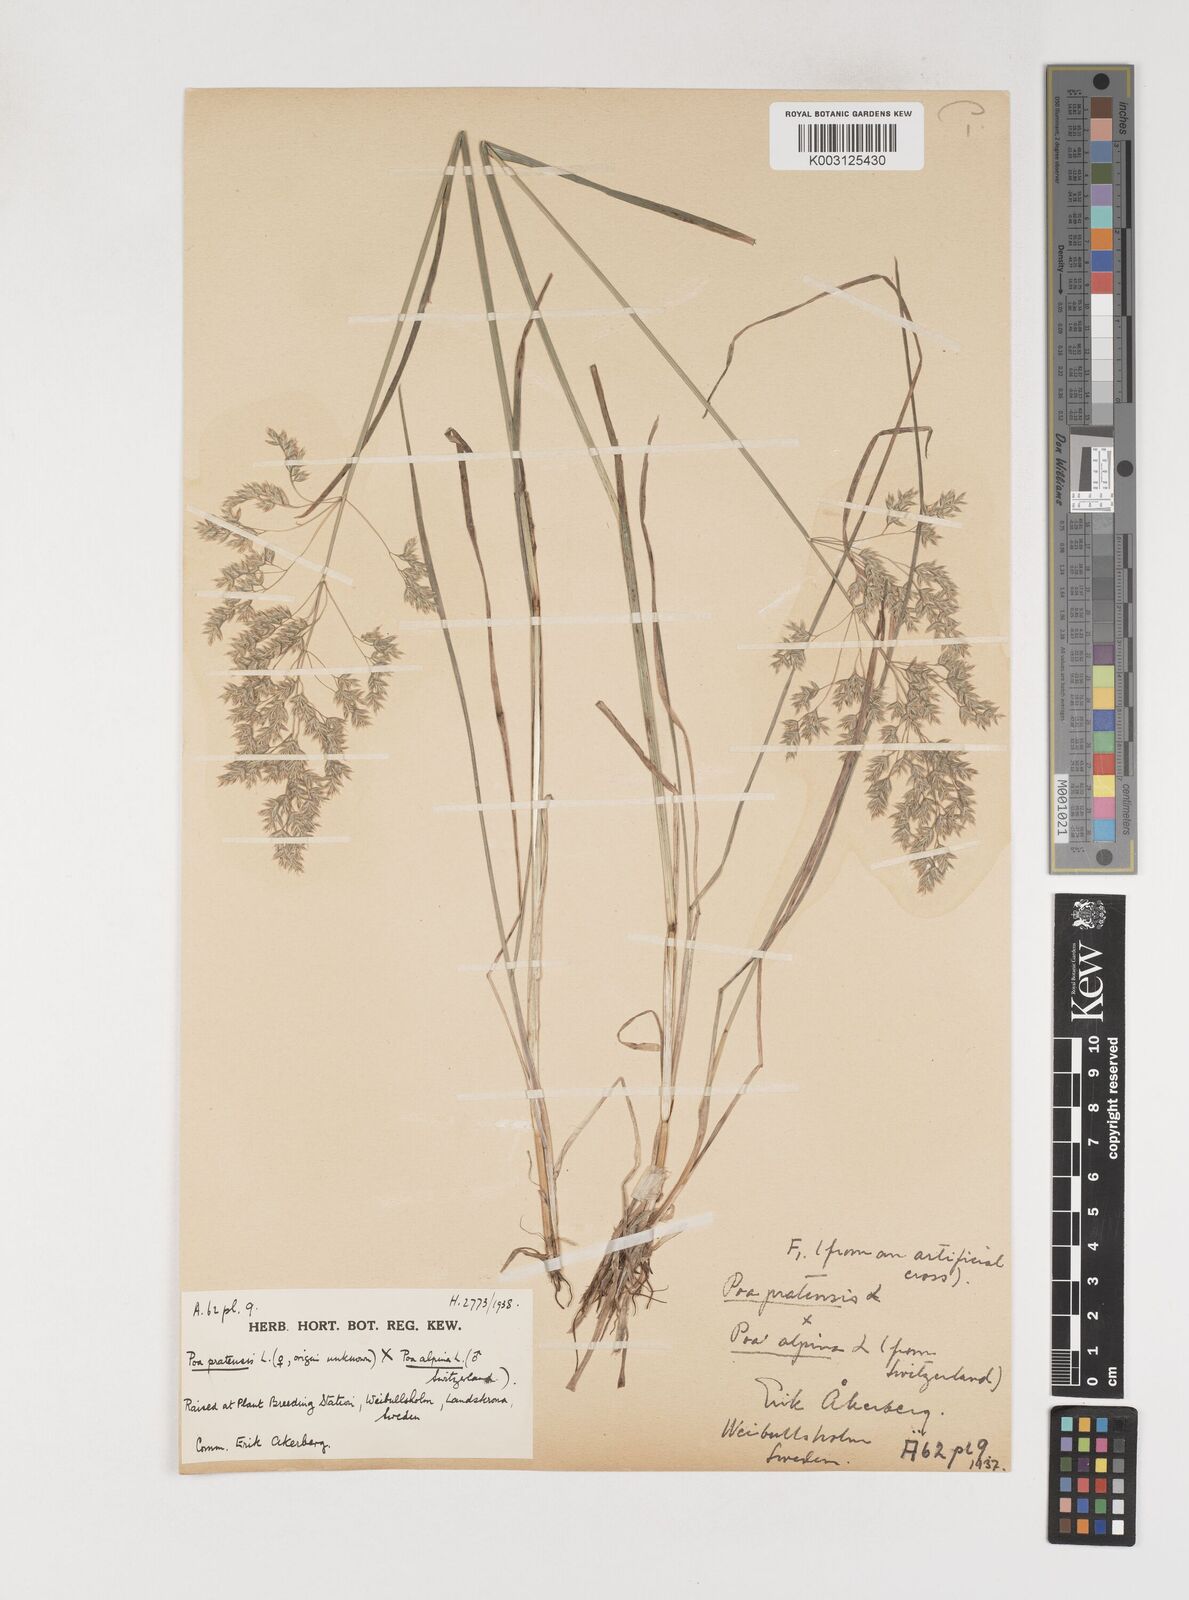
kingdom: Plantae
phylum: Tracheophyta
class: Liliopsida
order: Poales
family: Poaceae
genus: Poa
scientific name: Poa
